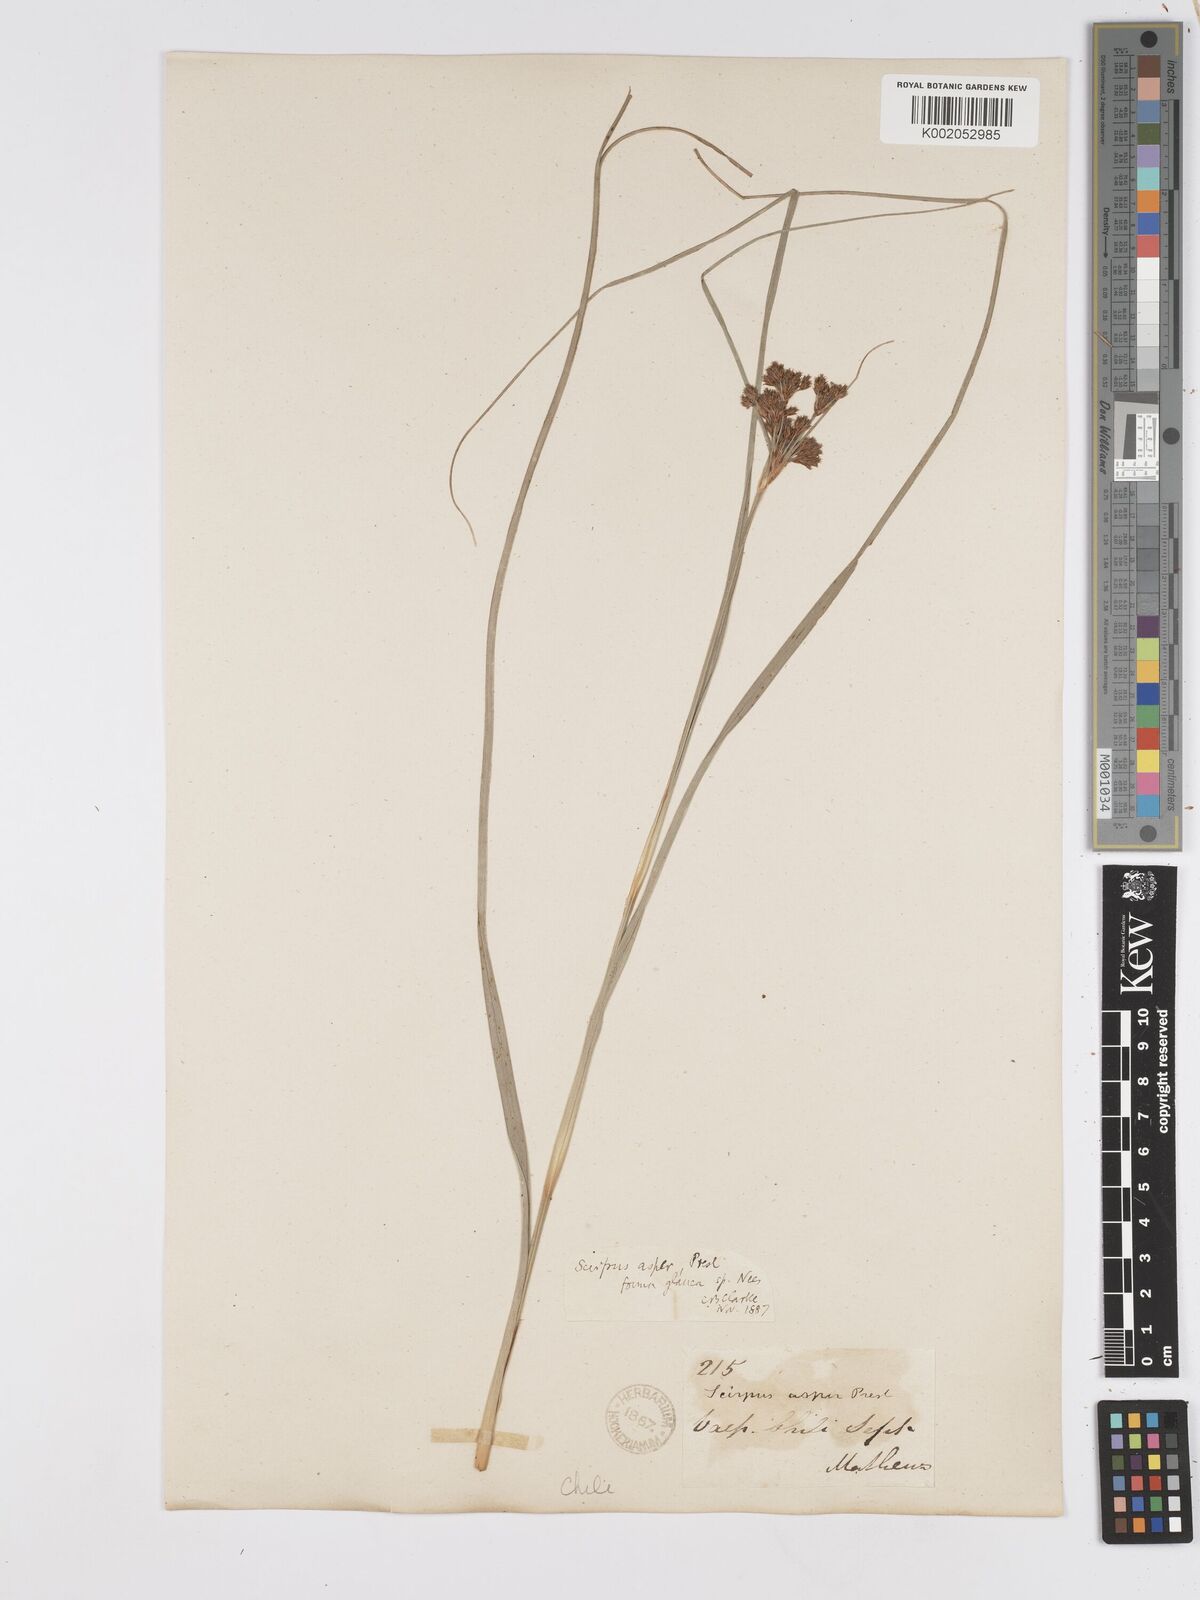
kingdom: Plantae
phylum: Tracheophyta
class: Liliopsida
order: Poales
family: Cyperaceae
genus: Rhodoscirpus
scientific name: Rhodoscirpus asper
